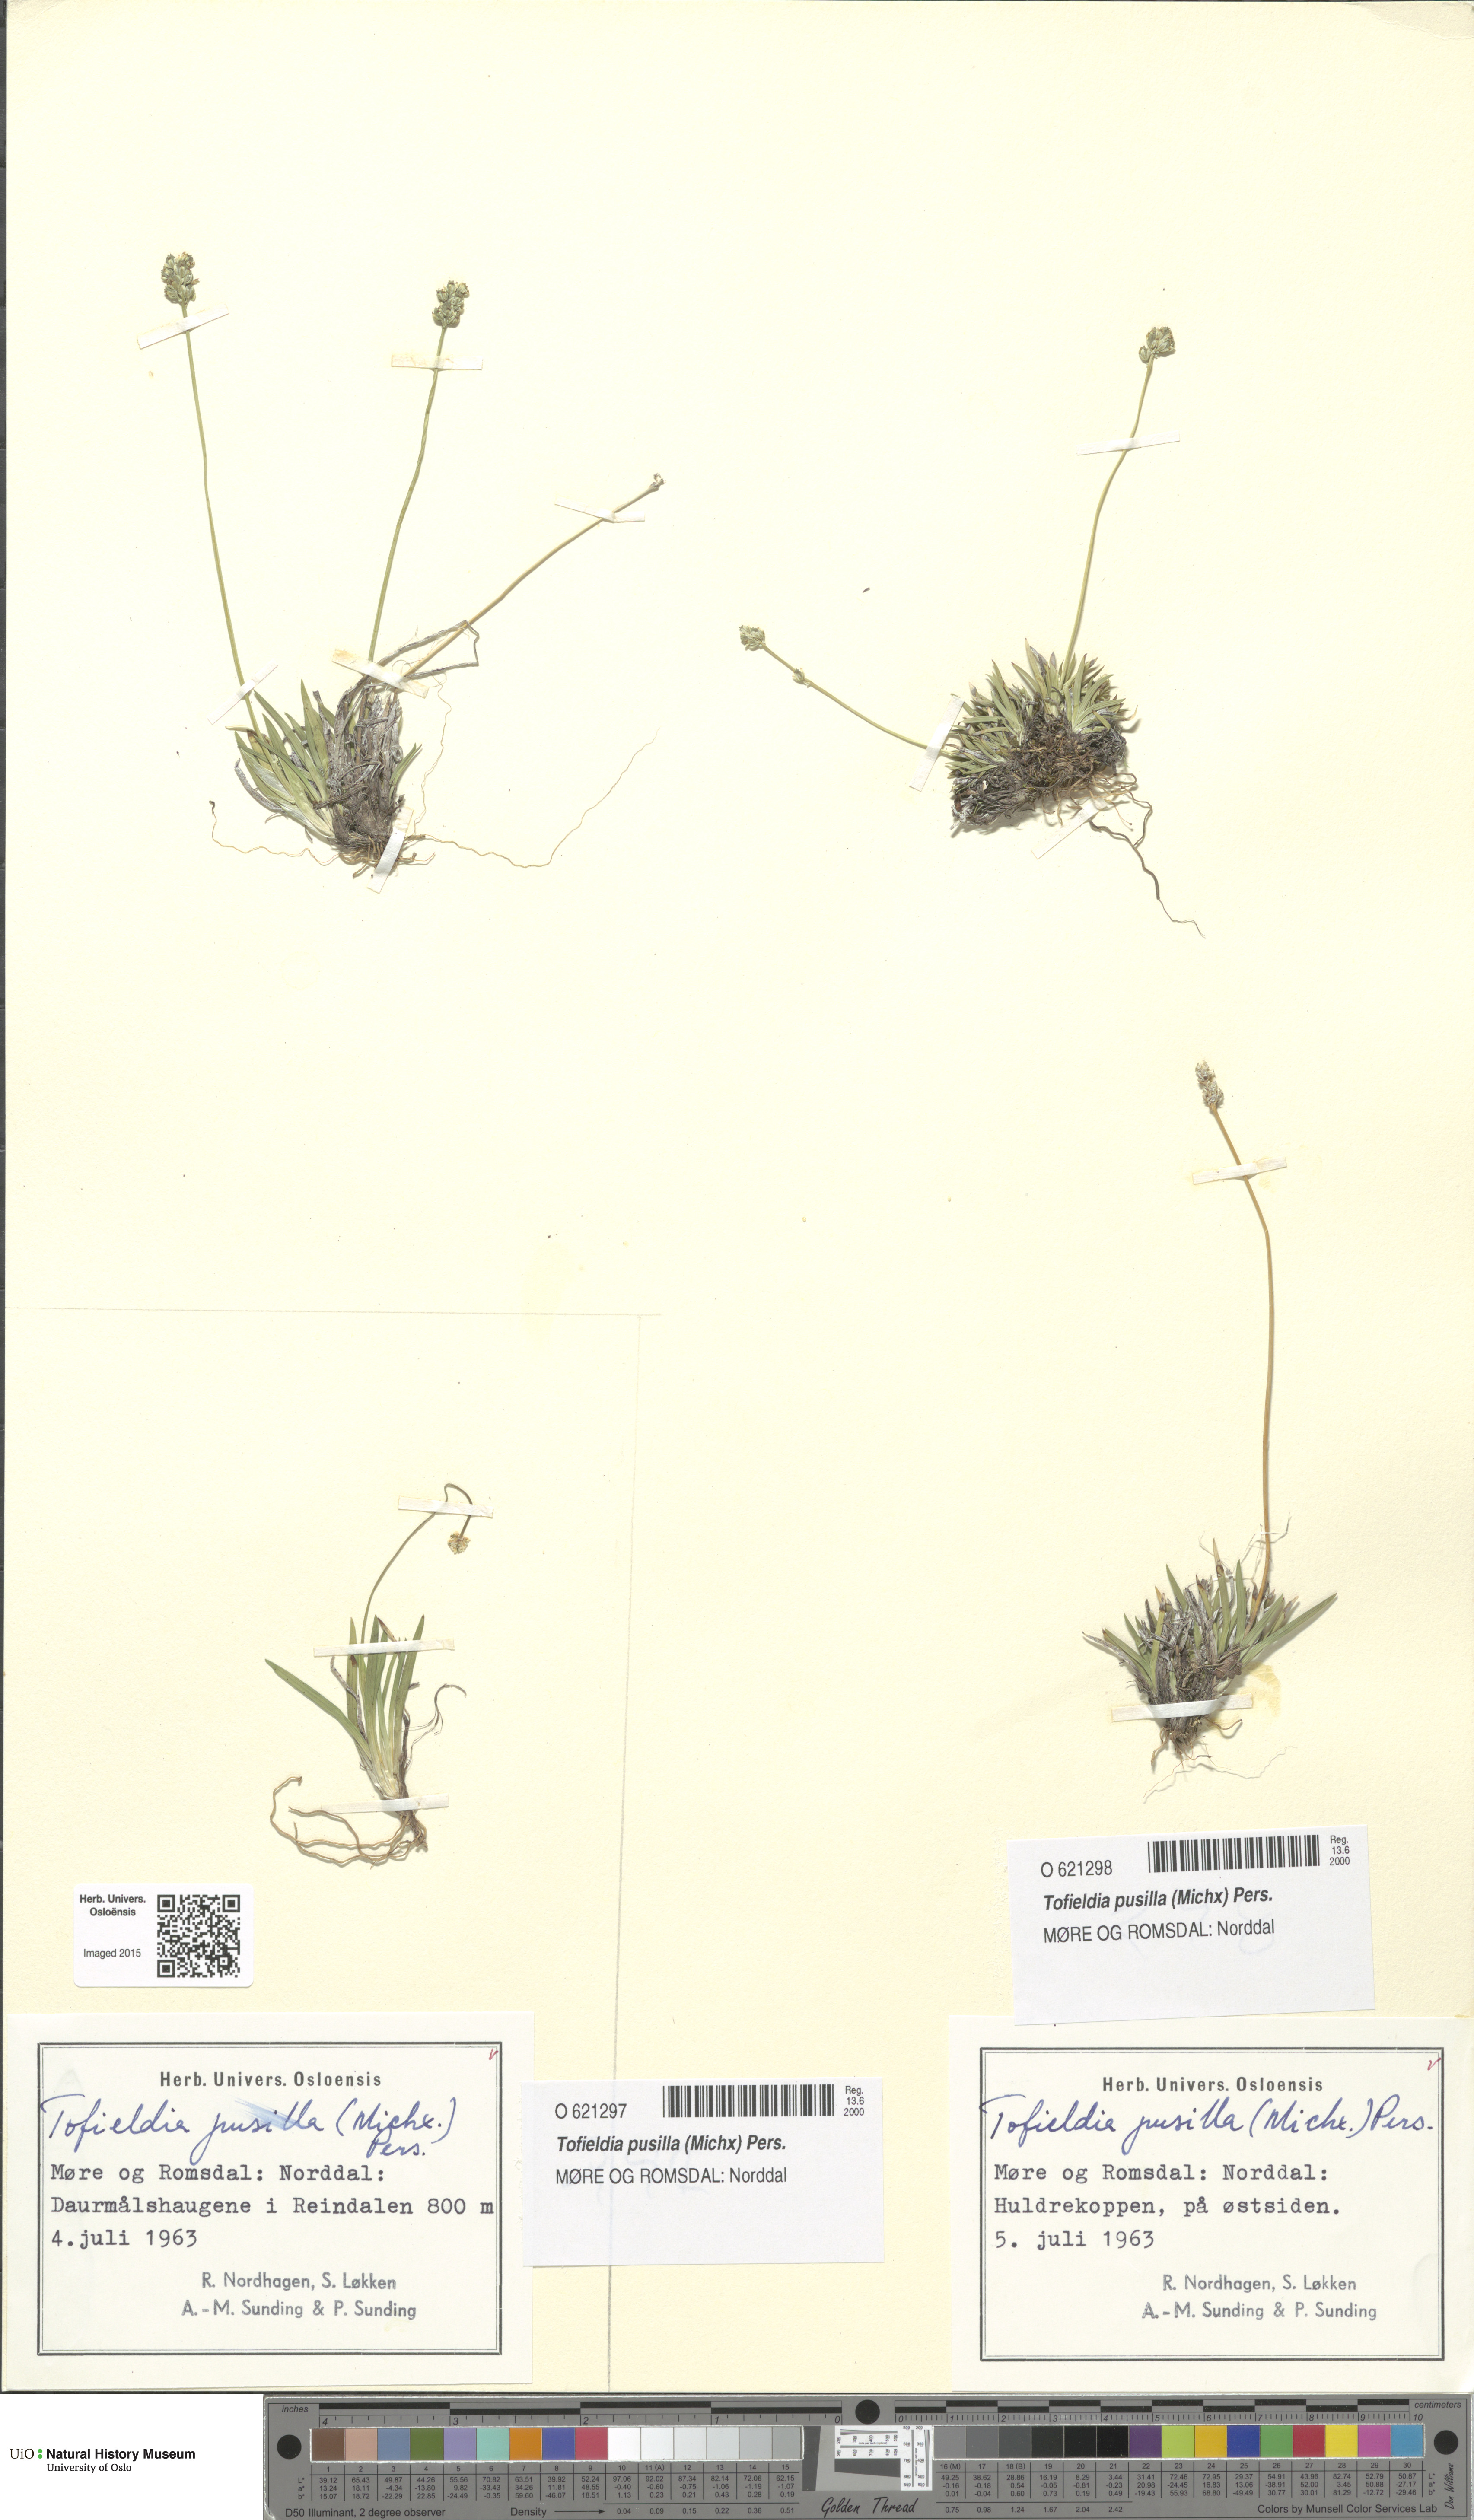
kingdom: Plantae
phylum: Tracheophyta
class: Liliopsida
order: Alismatales
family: Tofieldiaceae
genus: Tofieldia
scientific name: Tofieldia pusilla
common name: Scottish false asphodel
